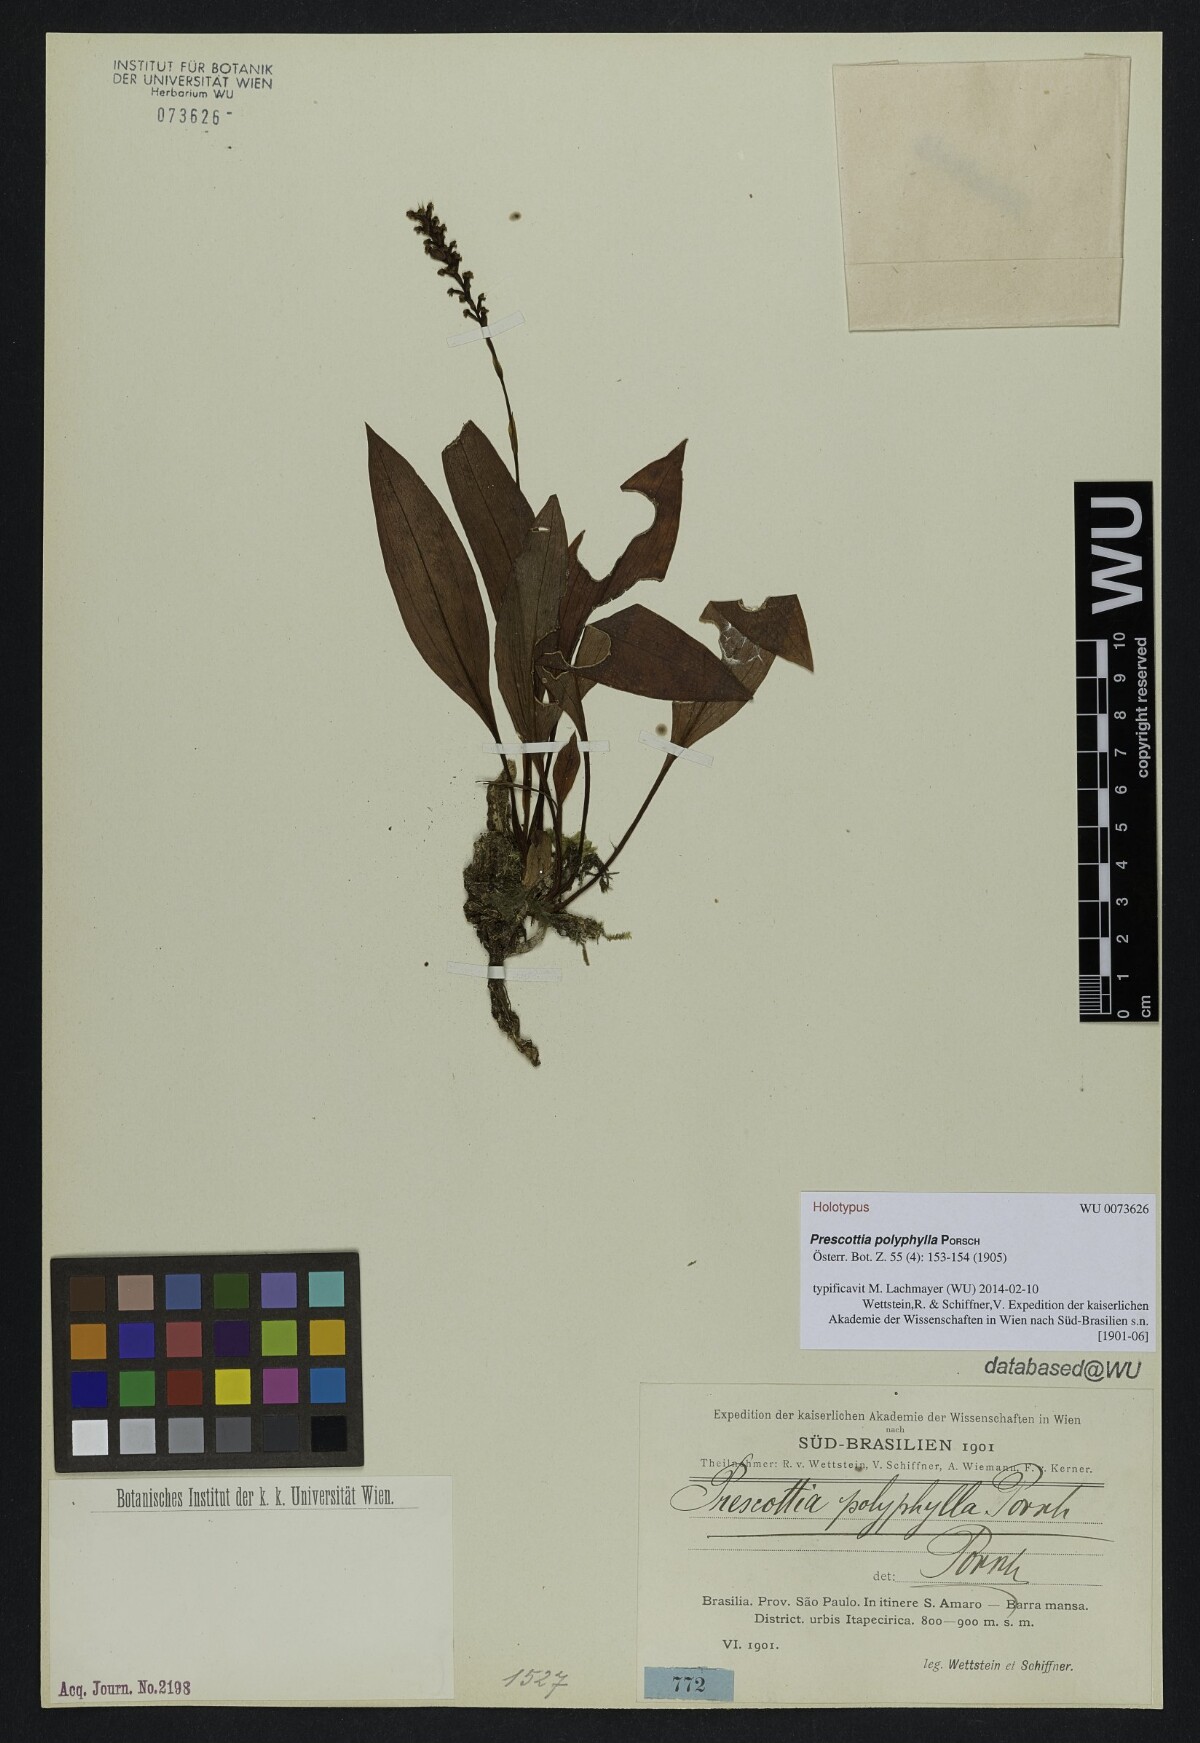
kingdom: Plantae
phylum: Tracheophyta
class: Liliopsida
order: Asparagales
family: Orchidaceae
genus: Prescottia
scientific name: Prescottia polyphylla
